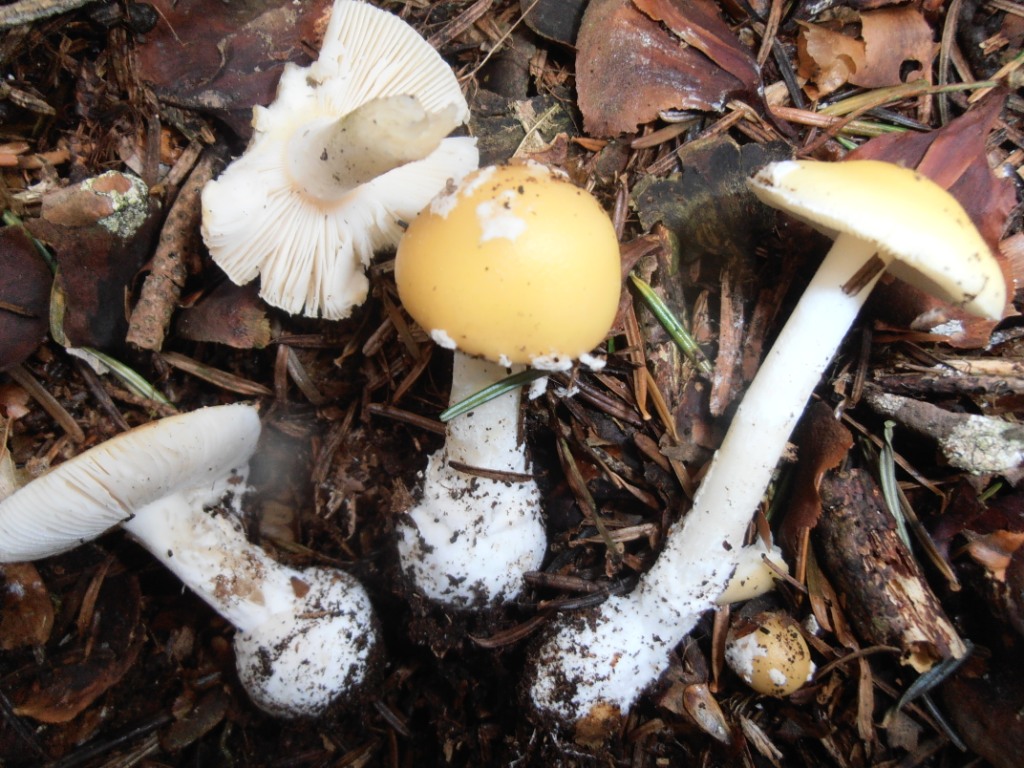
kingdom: Fungi
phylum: Basidiomycota
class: Agaricomycetes
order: Agaricales
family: Amanitaceae
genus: Amanita
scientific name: Amanita gemmata
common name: okkergul fluesvamp
